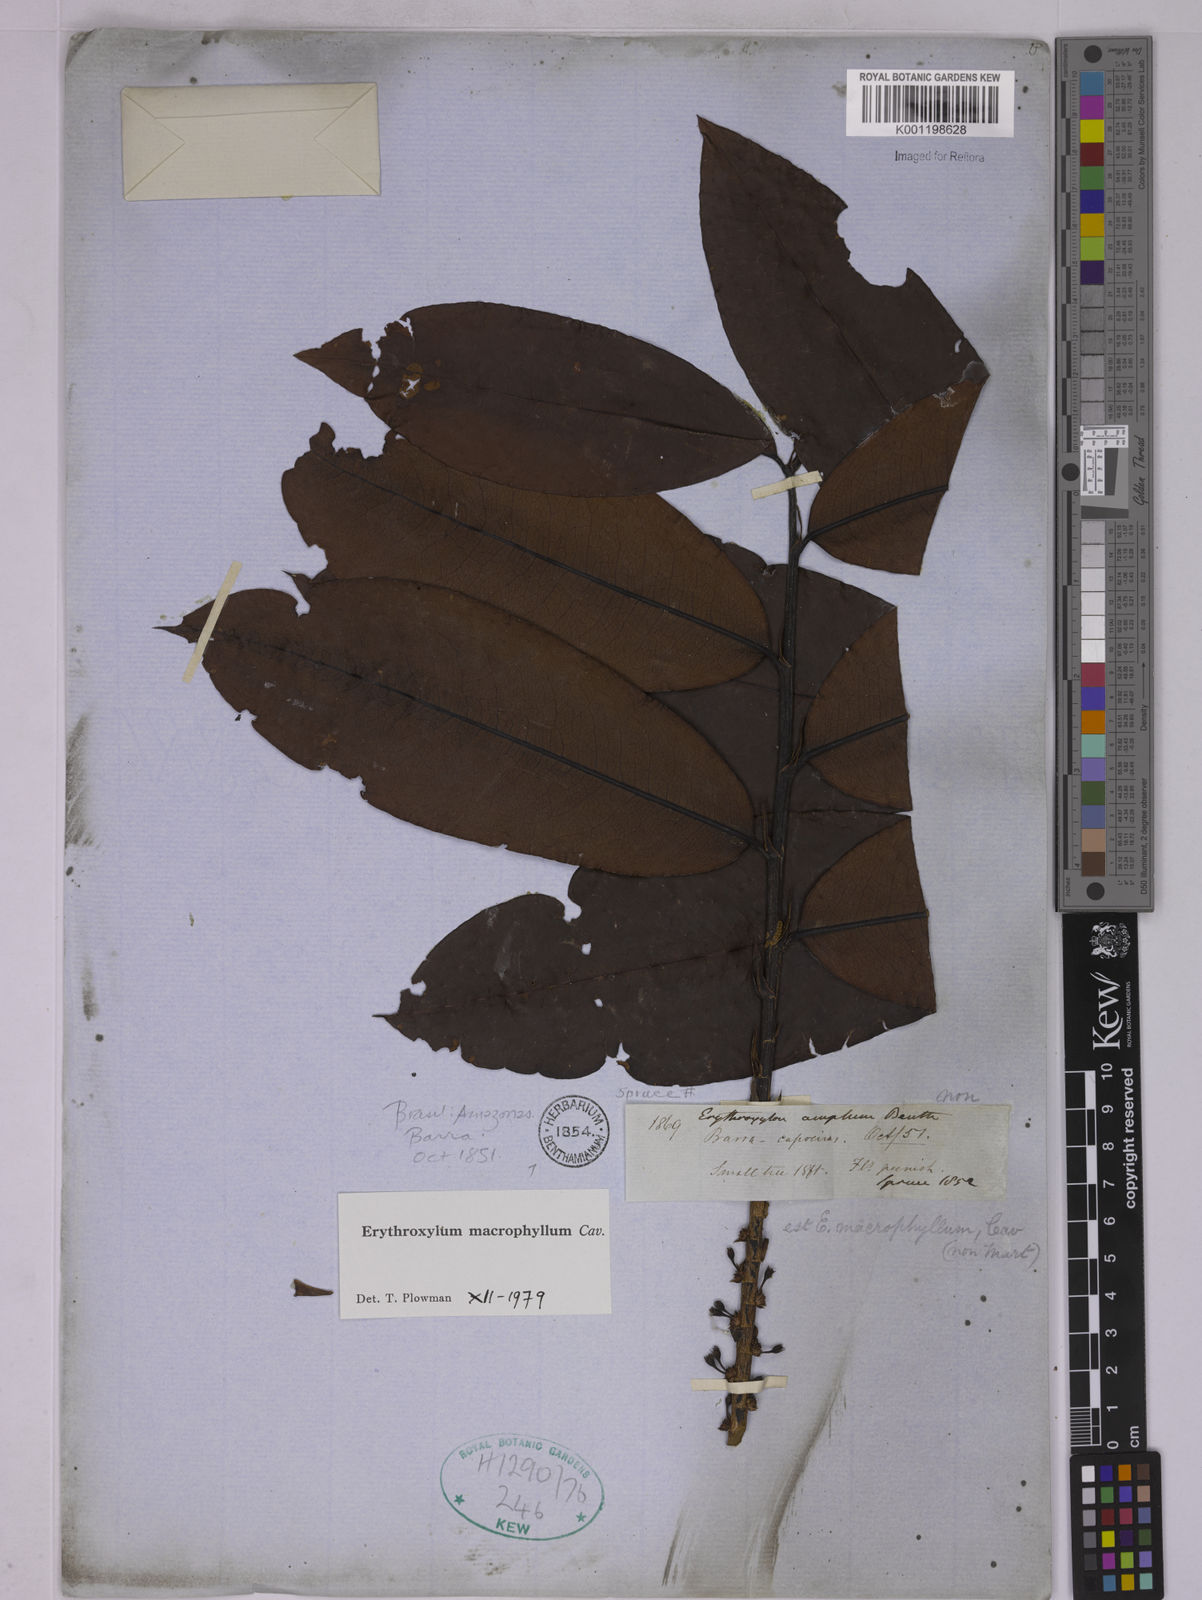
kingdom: Plantae
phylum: Tracheophyta
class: Magnoliopsida
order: Malpighiales
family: Erythroxylaceae
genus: Erythroxylum
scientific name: Erythroxylum macrophyllum
